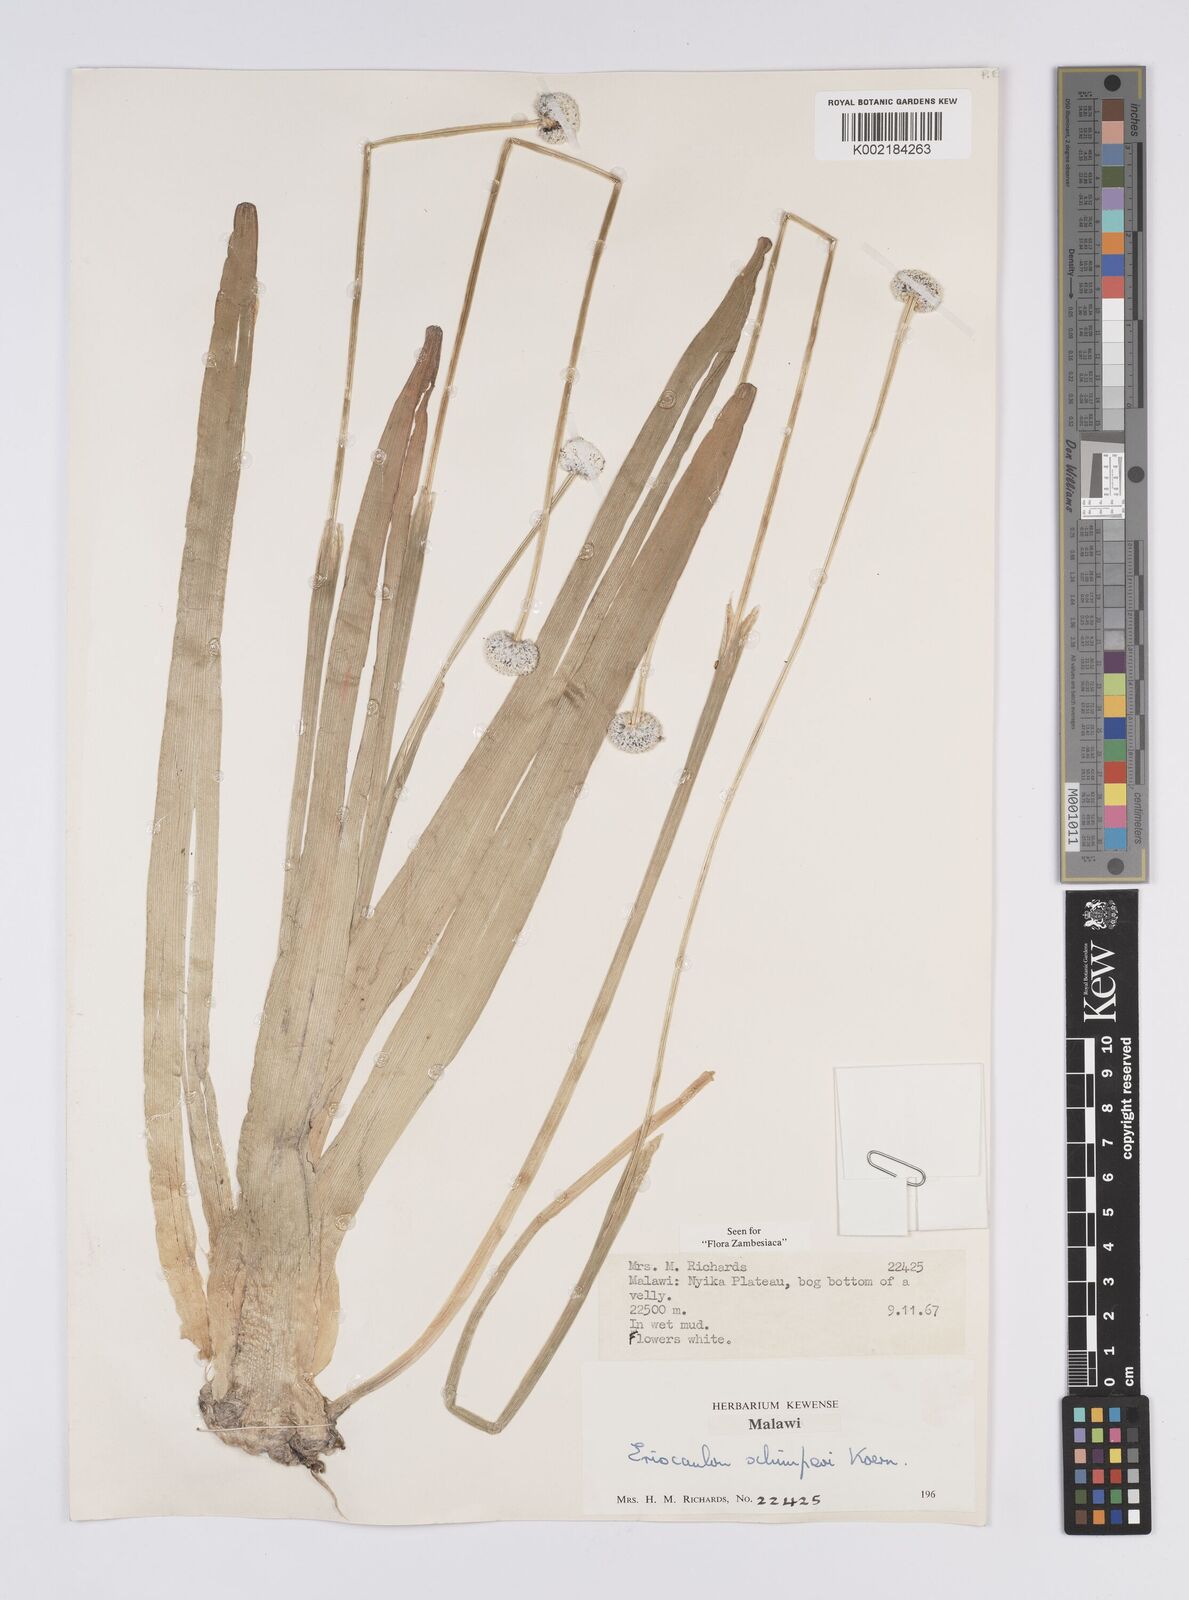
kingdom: Plantae
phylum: Tracheophyta
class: Liliopsida
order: Poales
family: Eriocaulaceae
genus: Eriocaulon
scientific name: Eriocaulon schimperi
